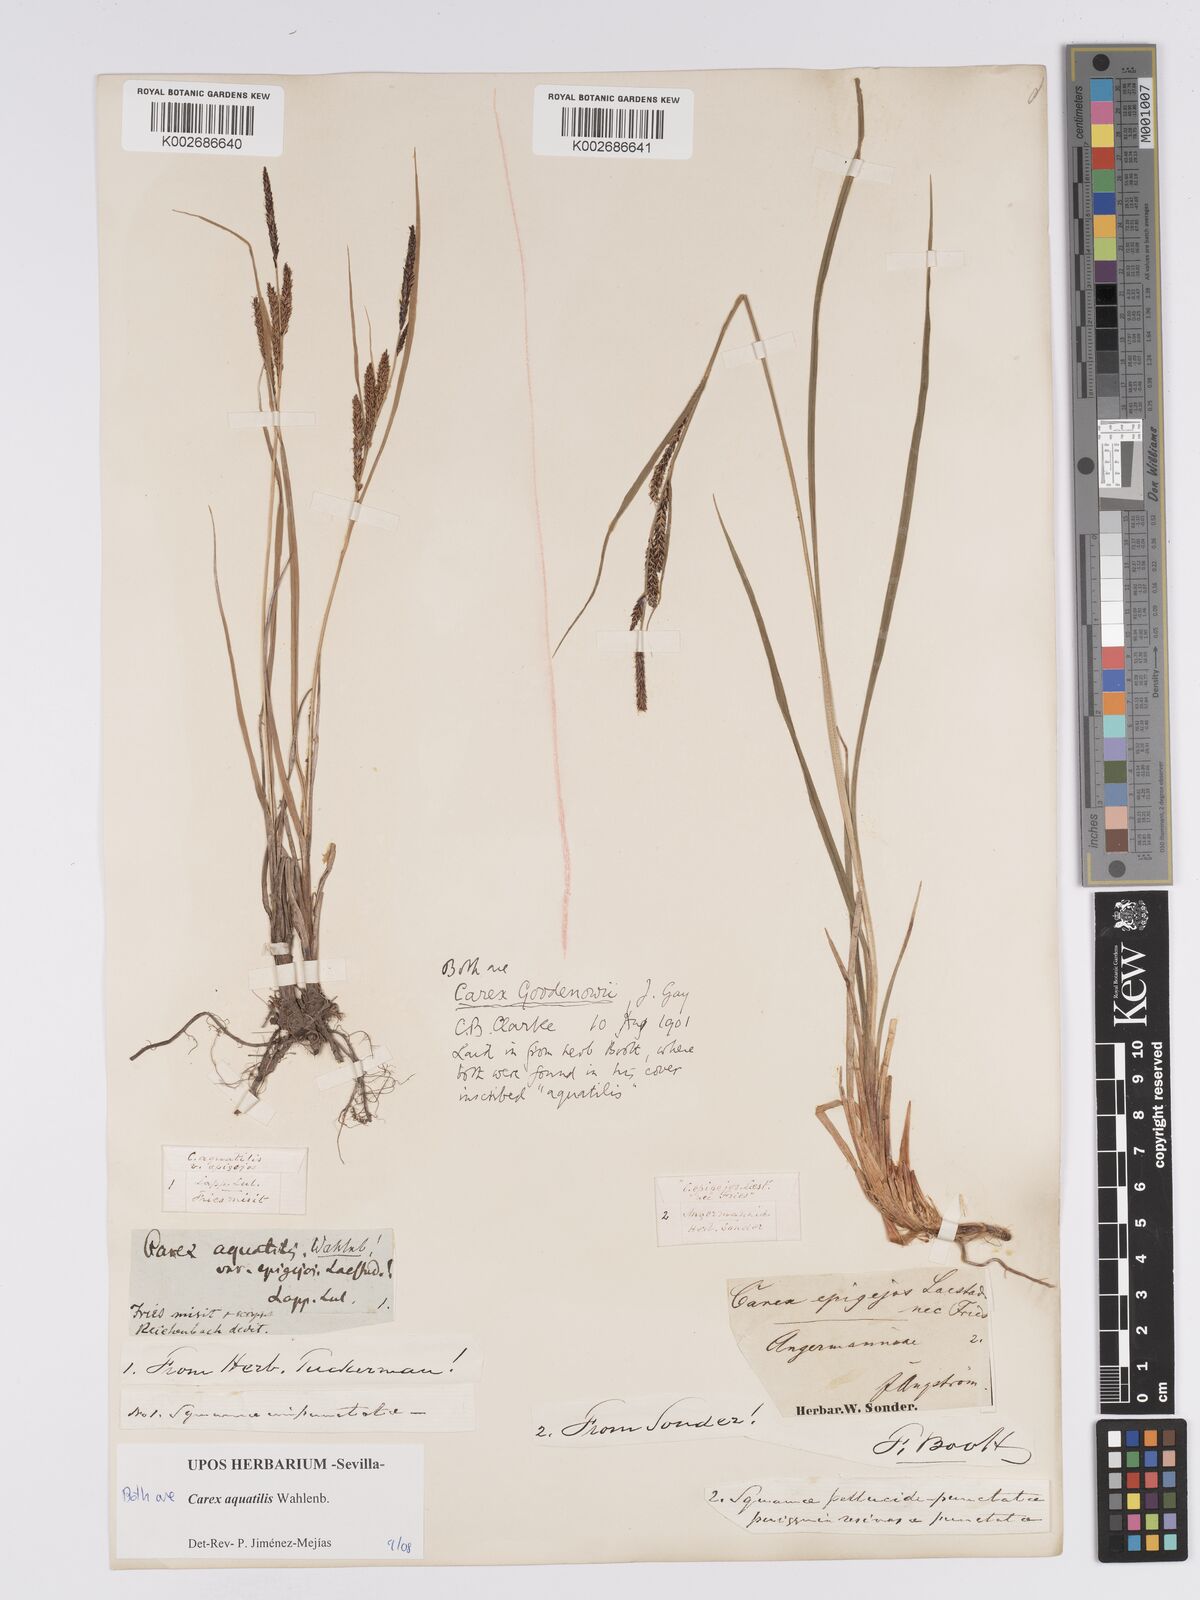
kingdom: Plantae
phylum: Tracheophyta
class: Liliopsida
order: Poales
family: Cyperaceae
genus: Carex
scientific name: Carex aquatilis
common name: Water sedge
